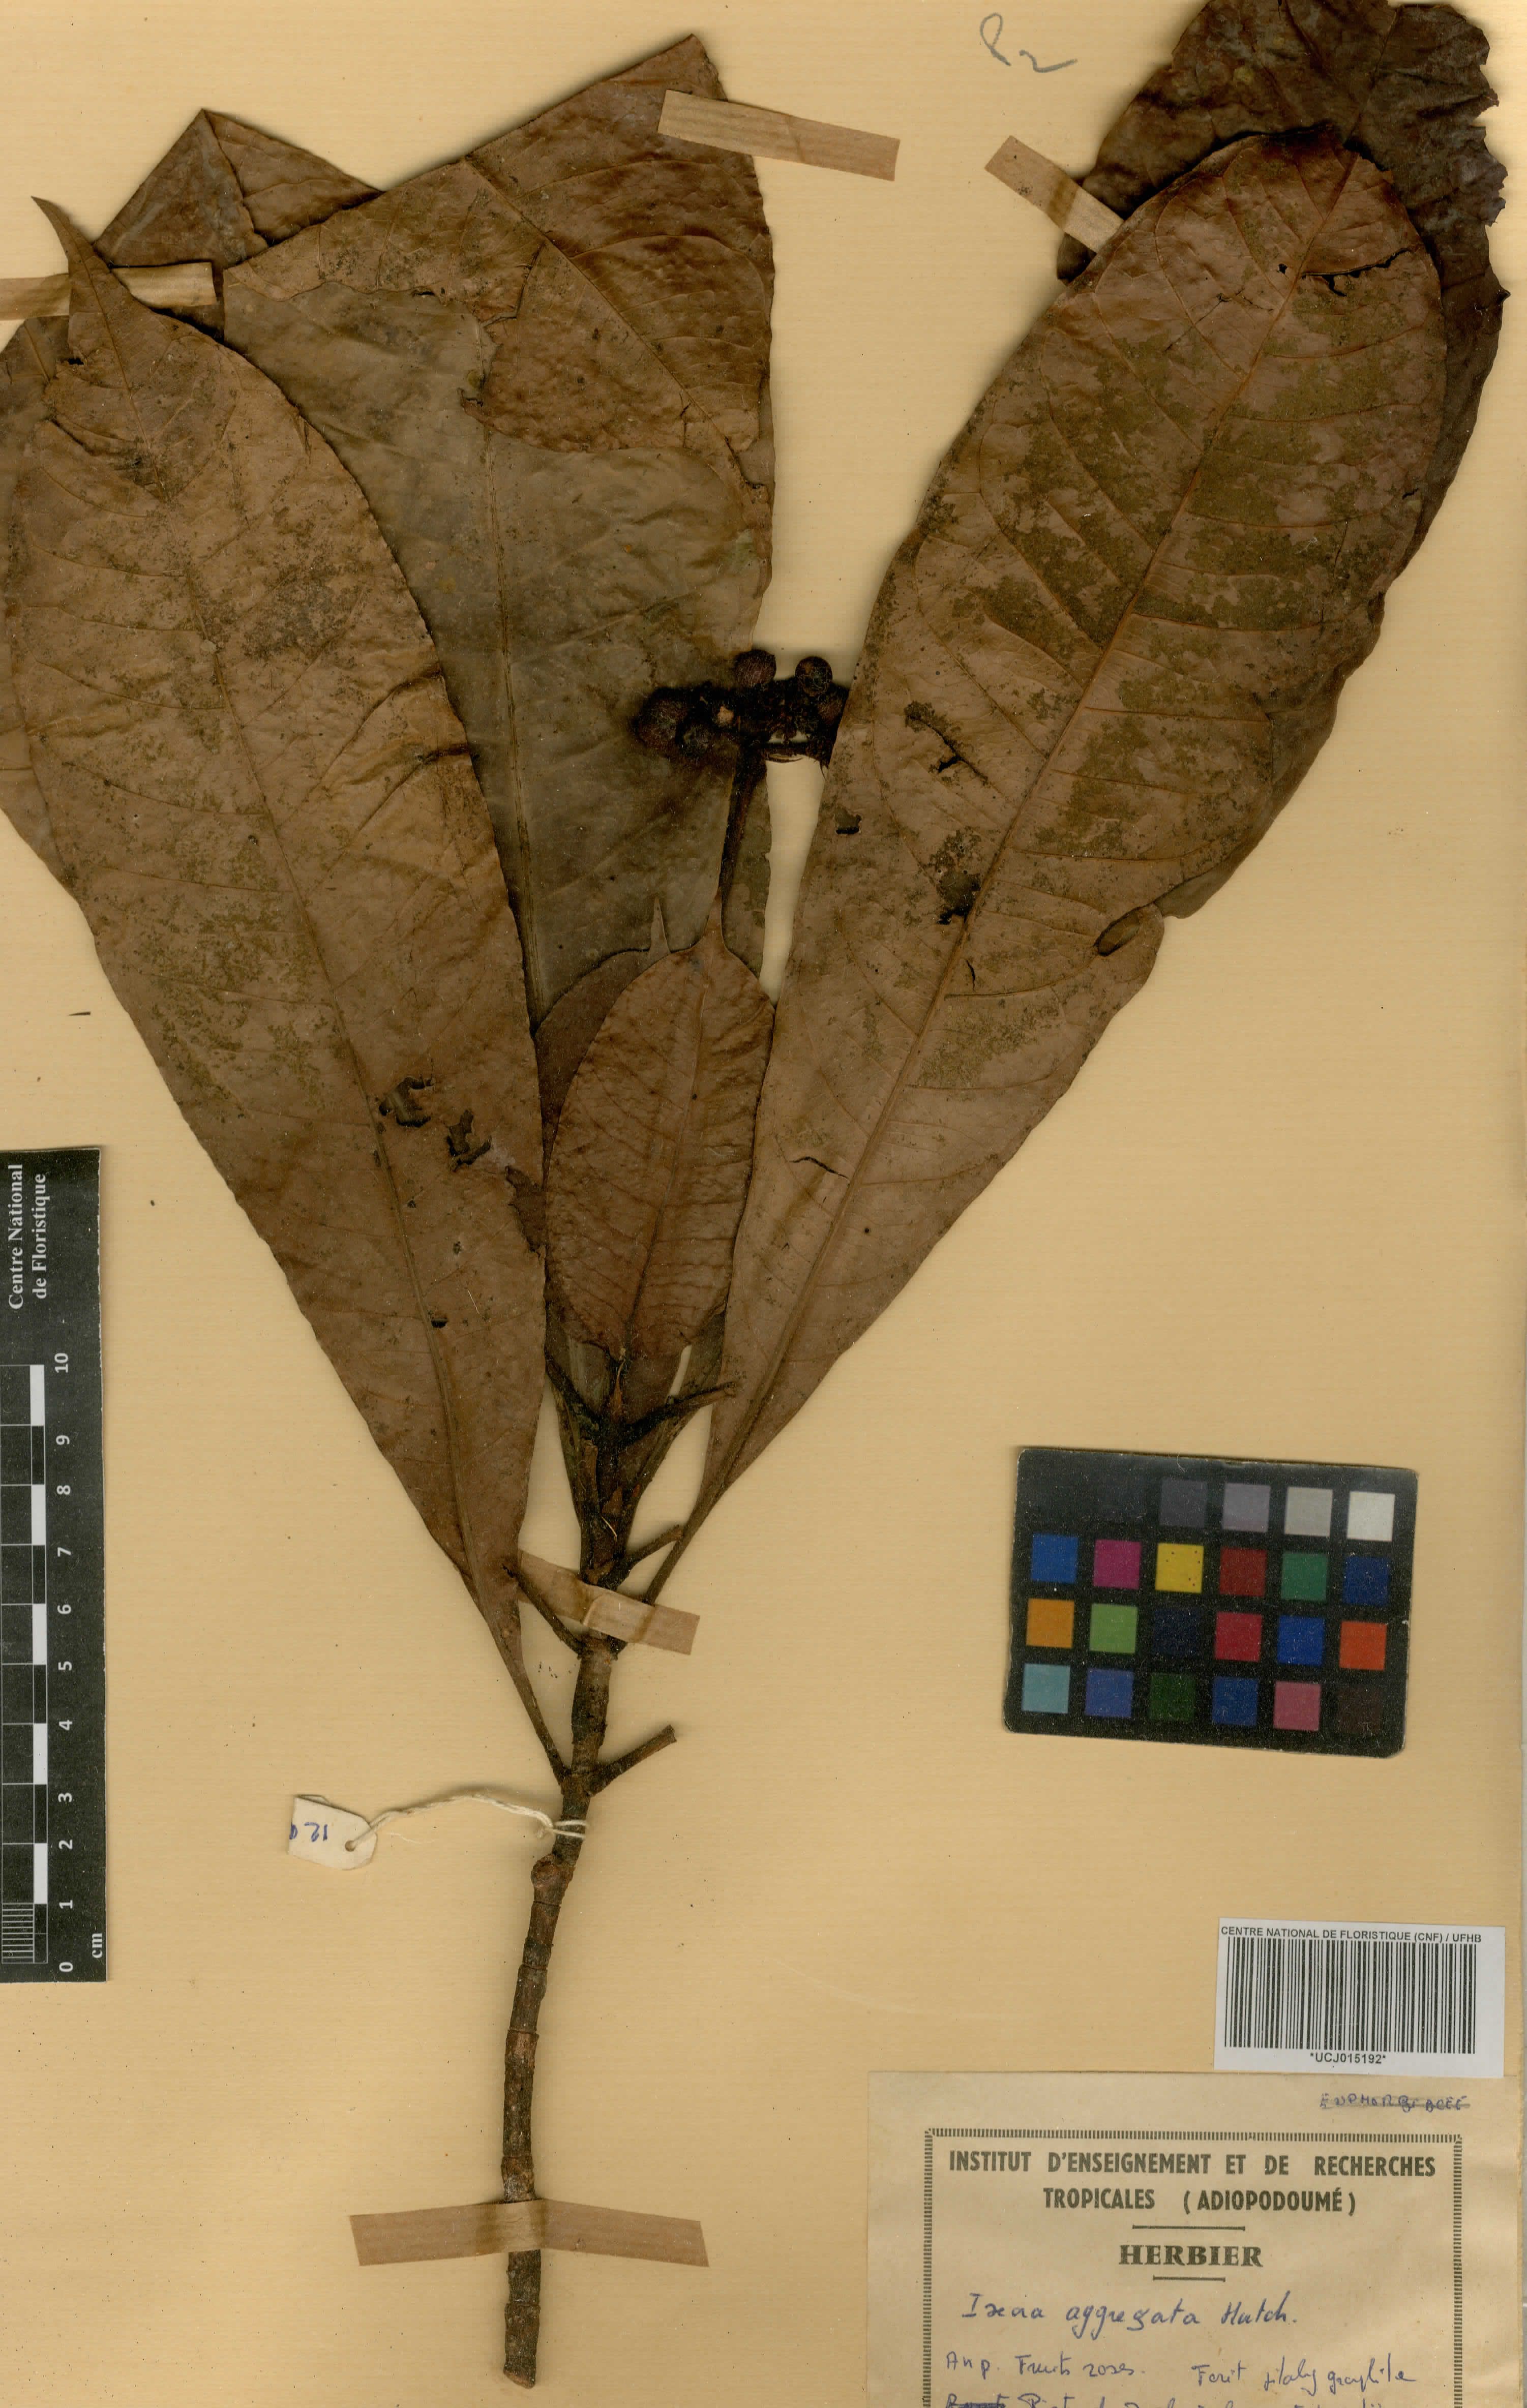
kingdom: Plantae
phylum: Tracheophyta
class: Magnoliopsida
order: Gentianales
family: Rubiaceae
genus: Ixora
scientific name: Ixora aggregata
